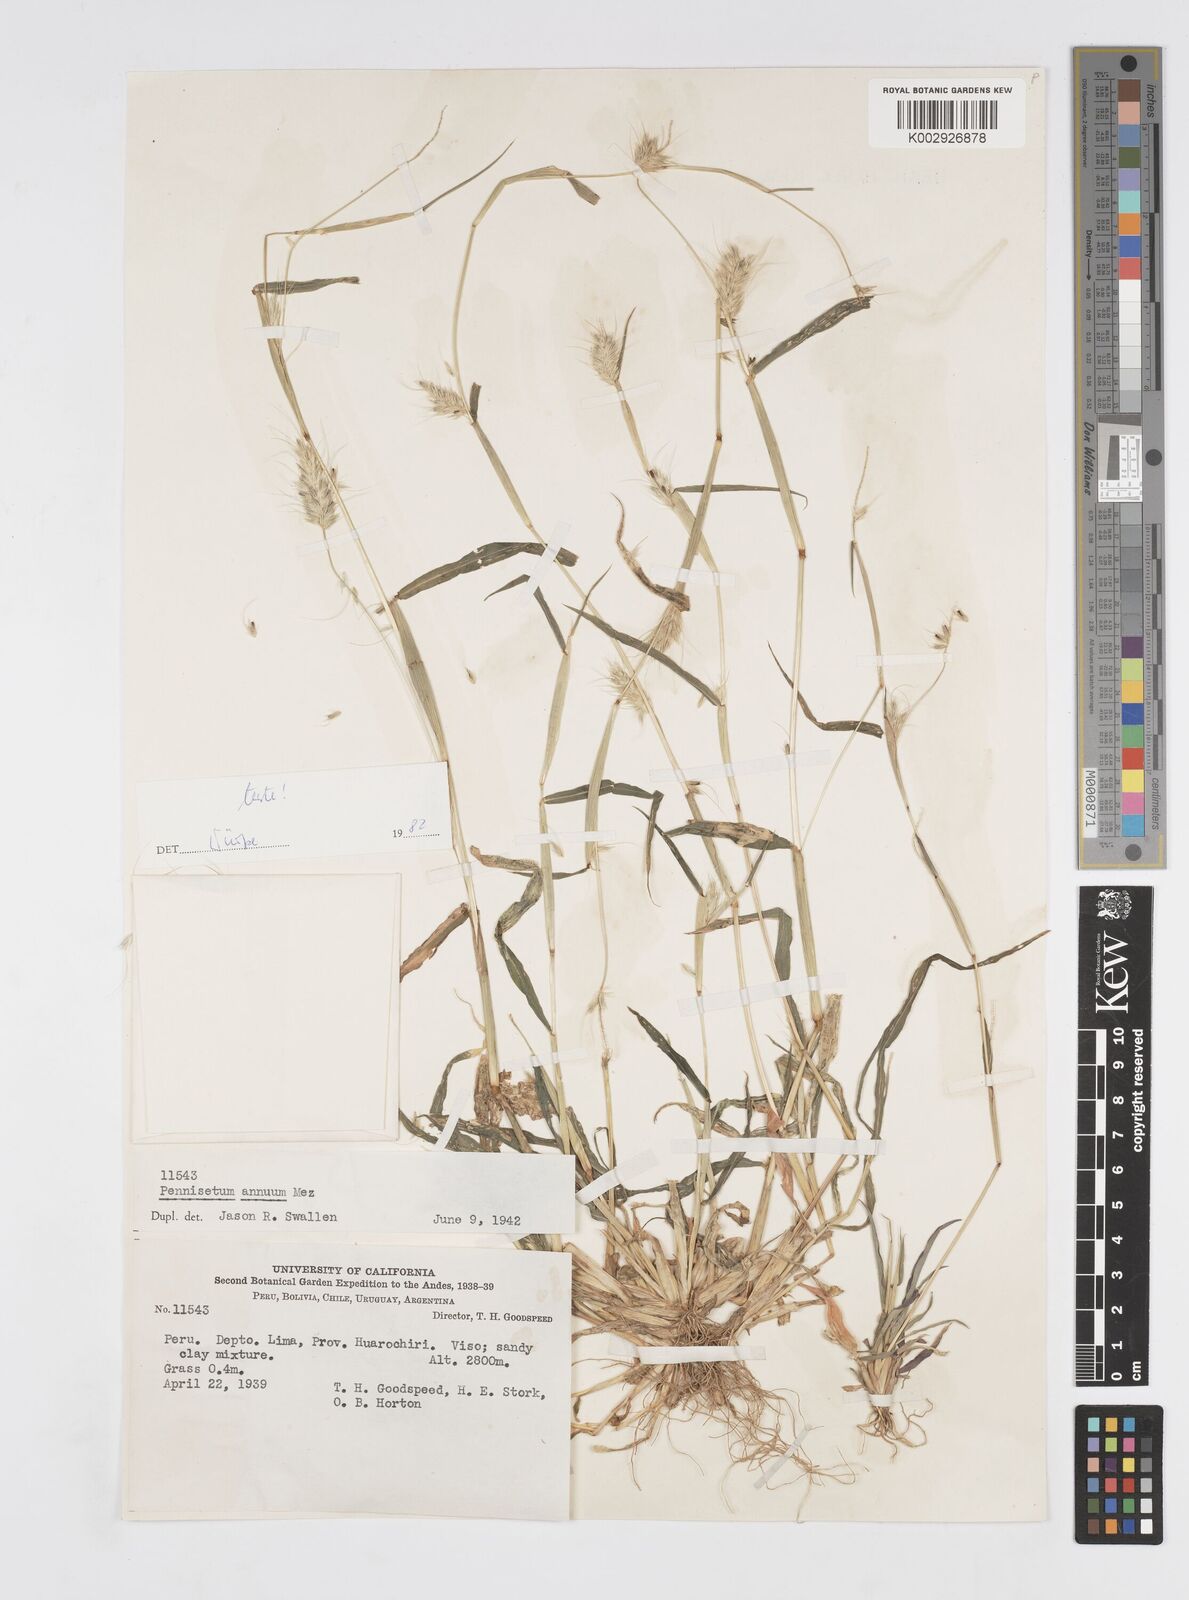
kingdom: Plantae
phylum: Tracheophyta
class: Liliopsida
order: Poales
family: Poaceae
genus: Cenchrus
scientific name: Cenchrus annuus
